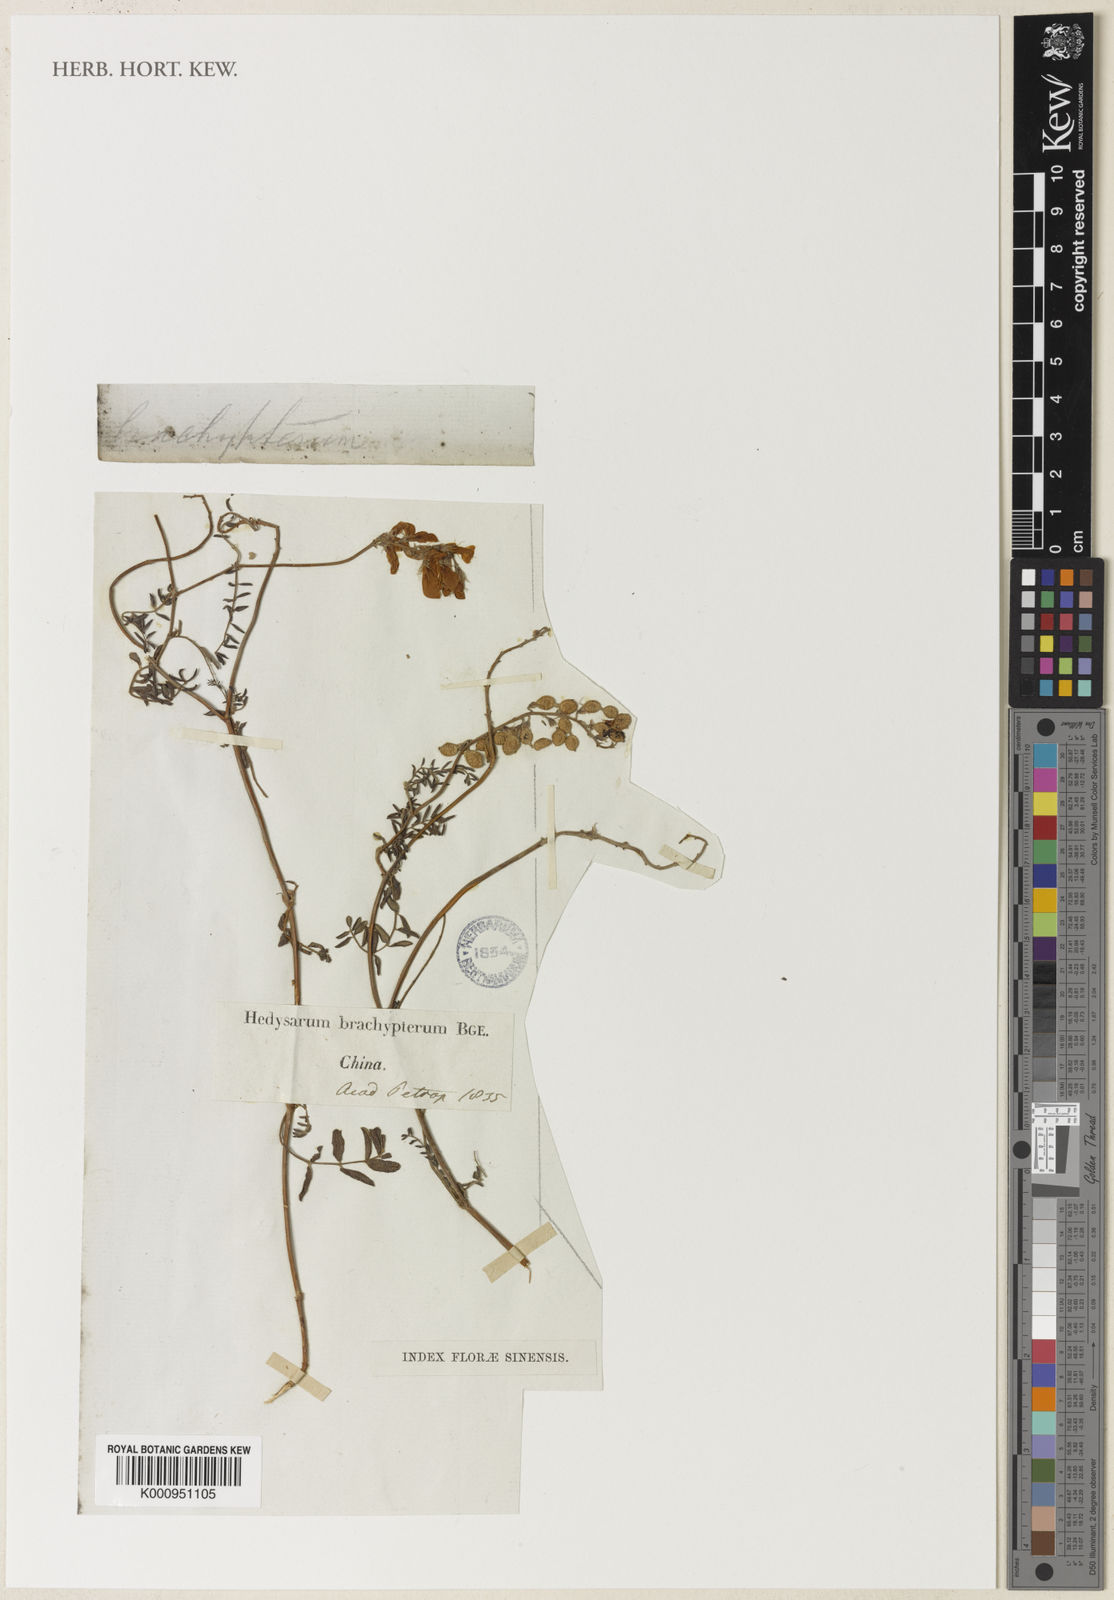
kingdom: Plantae
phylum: Tracheophyta
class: Magnoliopsida
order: Fabales
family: Fabaceae
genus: Hedysarum
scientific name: Hedysarum brachypterum
